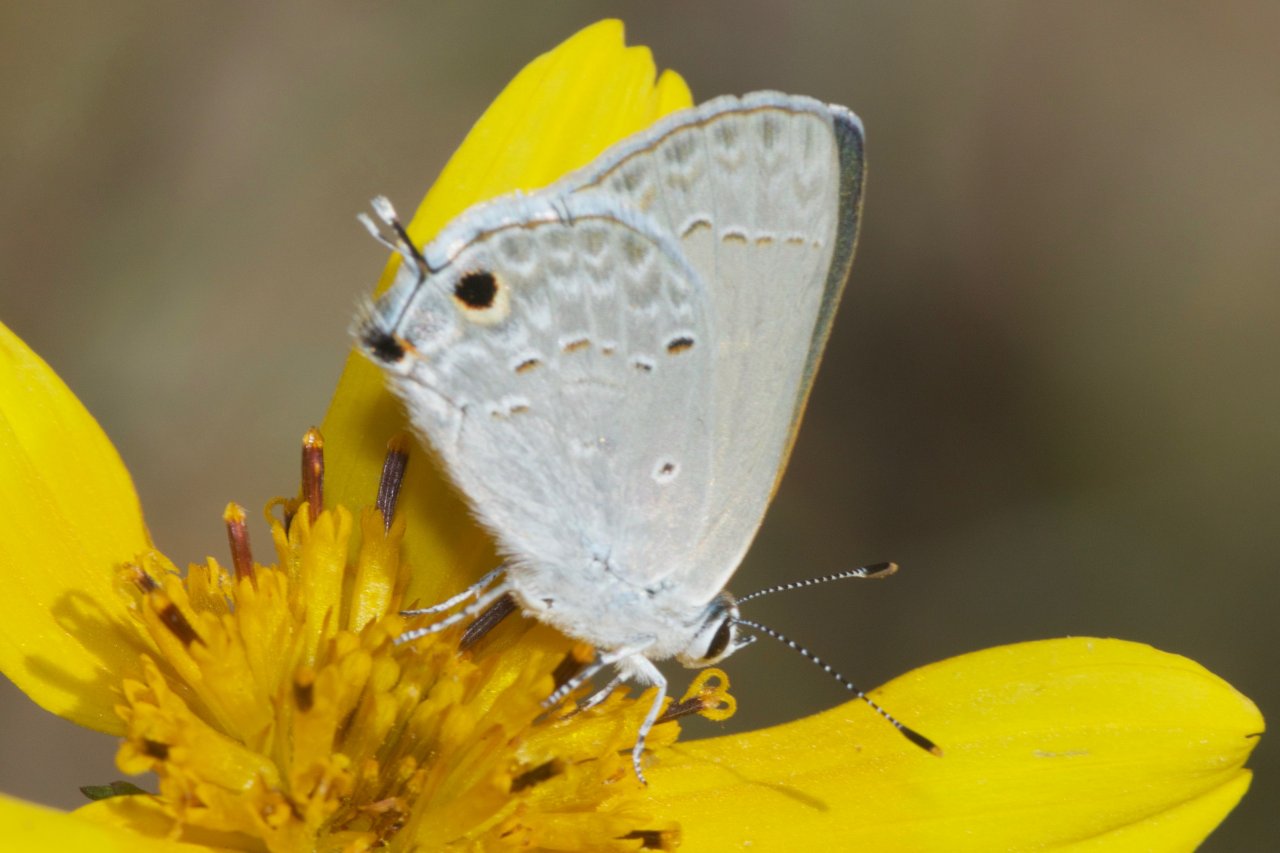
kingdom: Animalia
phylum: Arthropoda
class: Insecta
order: Lepidoptera
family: Lycaenidae
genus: Callicista
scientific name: Callicista columella
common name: Mallow Scrub-Hairstreak
